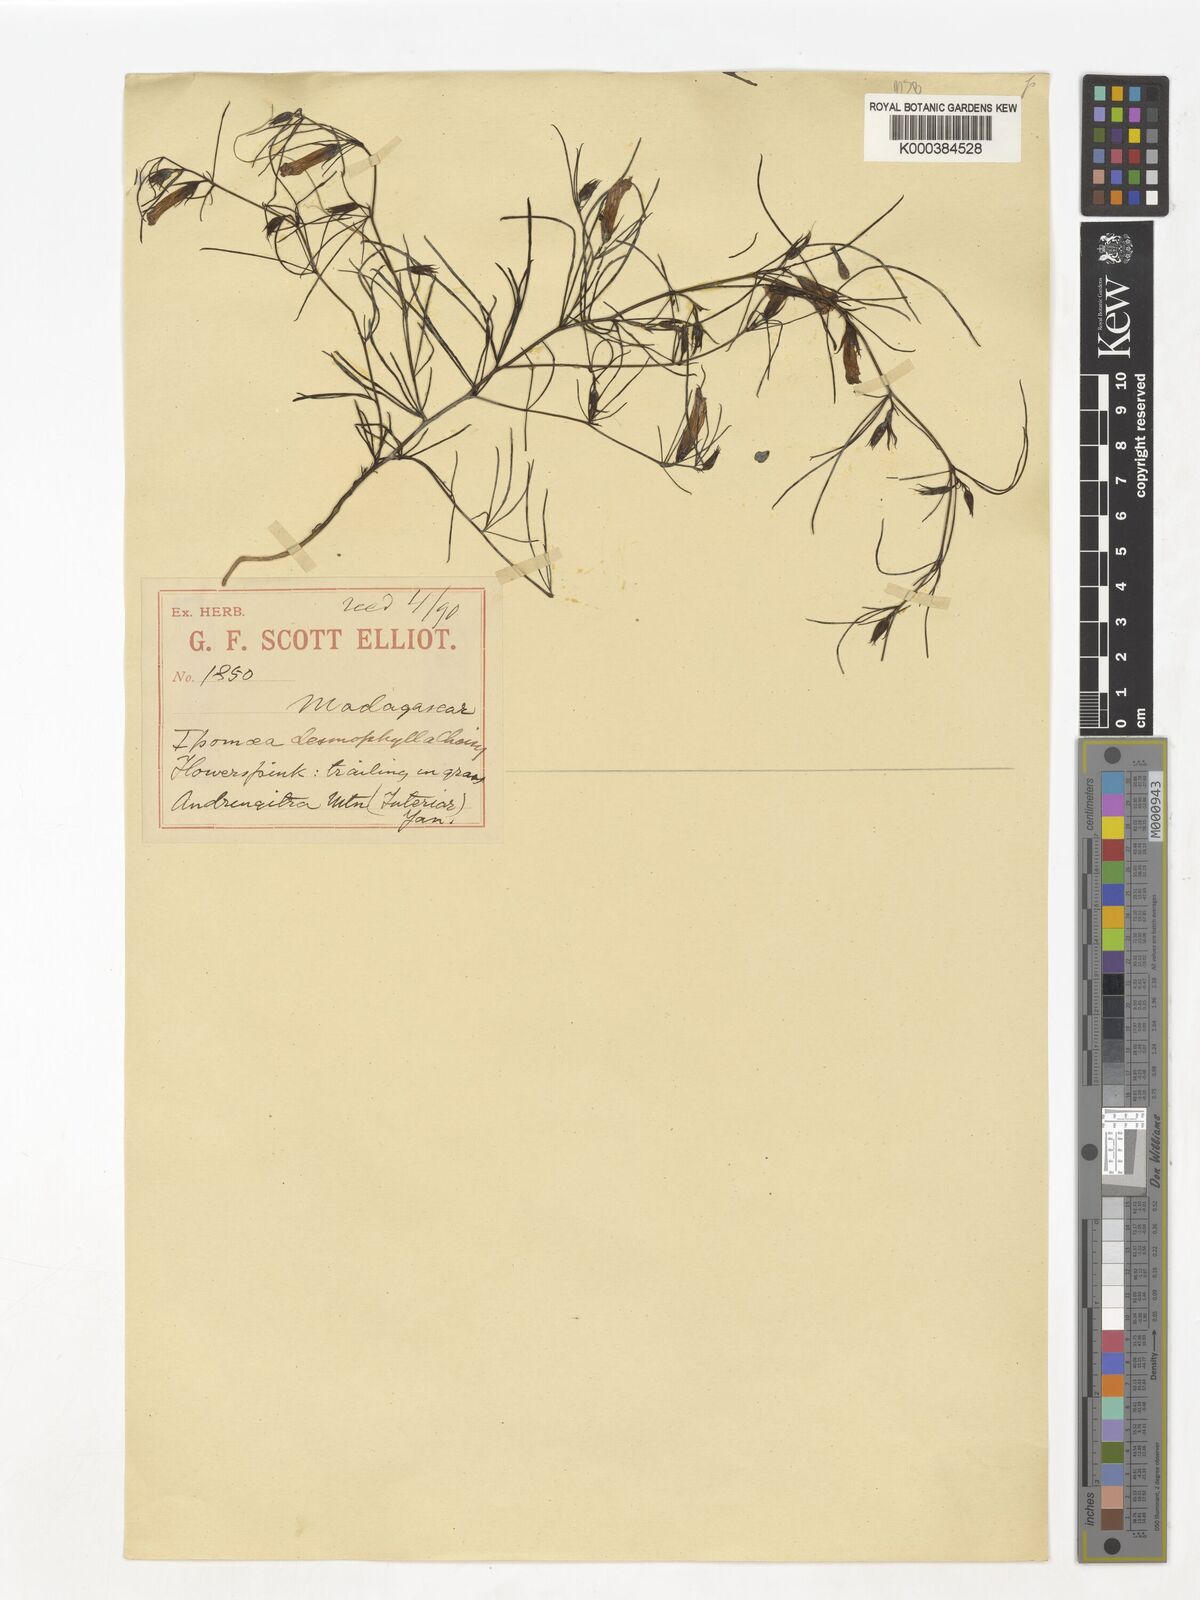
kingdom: Plantae
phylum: Tracheophyta
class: Magnoliopsida
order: Solanales
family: Convolvulaceae
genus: Ipomoea
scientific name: Ipomoea desmophylla
